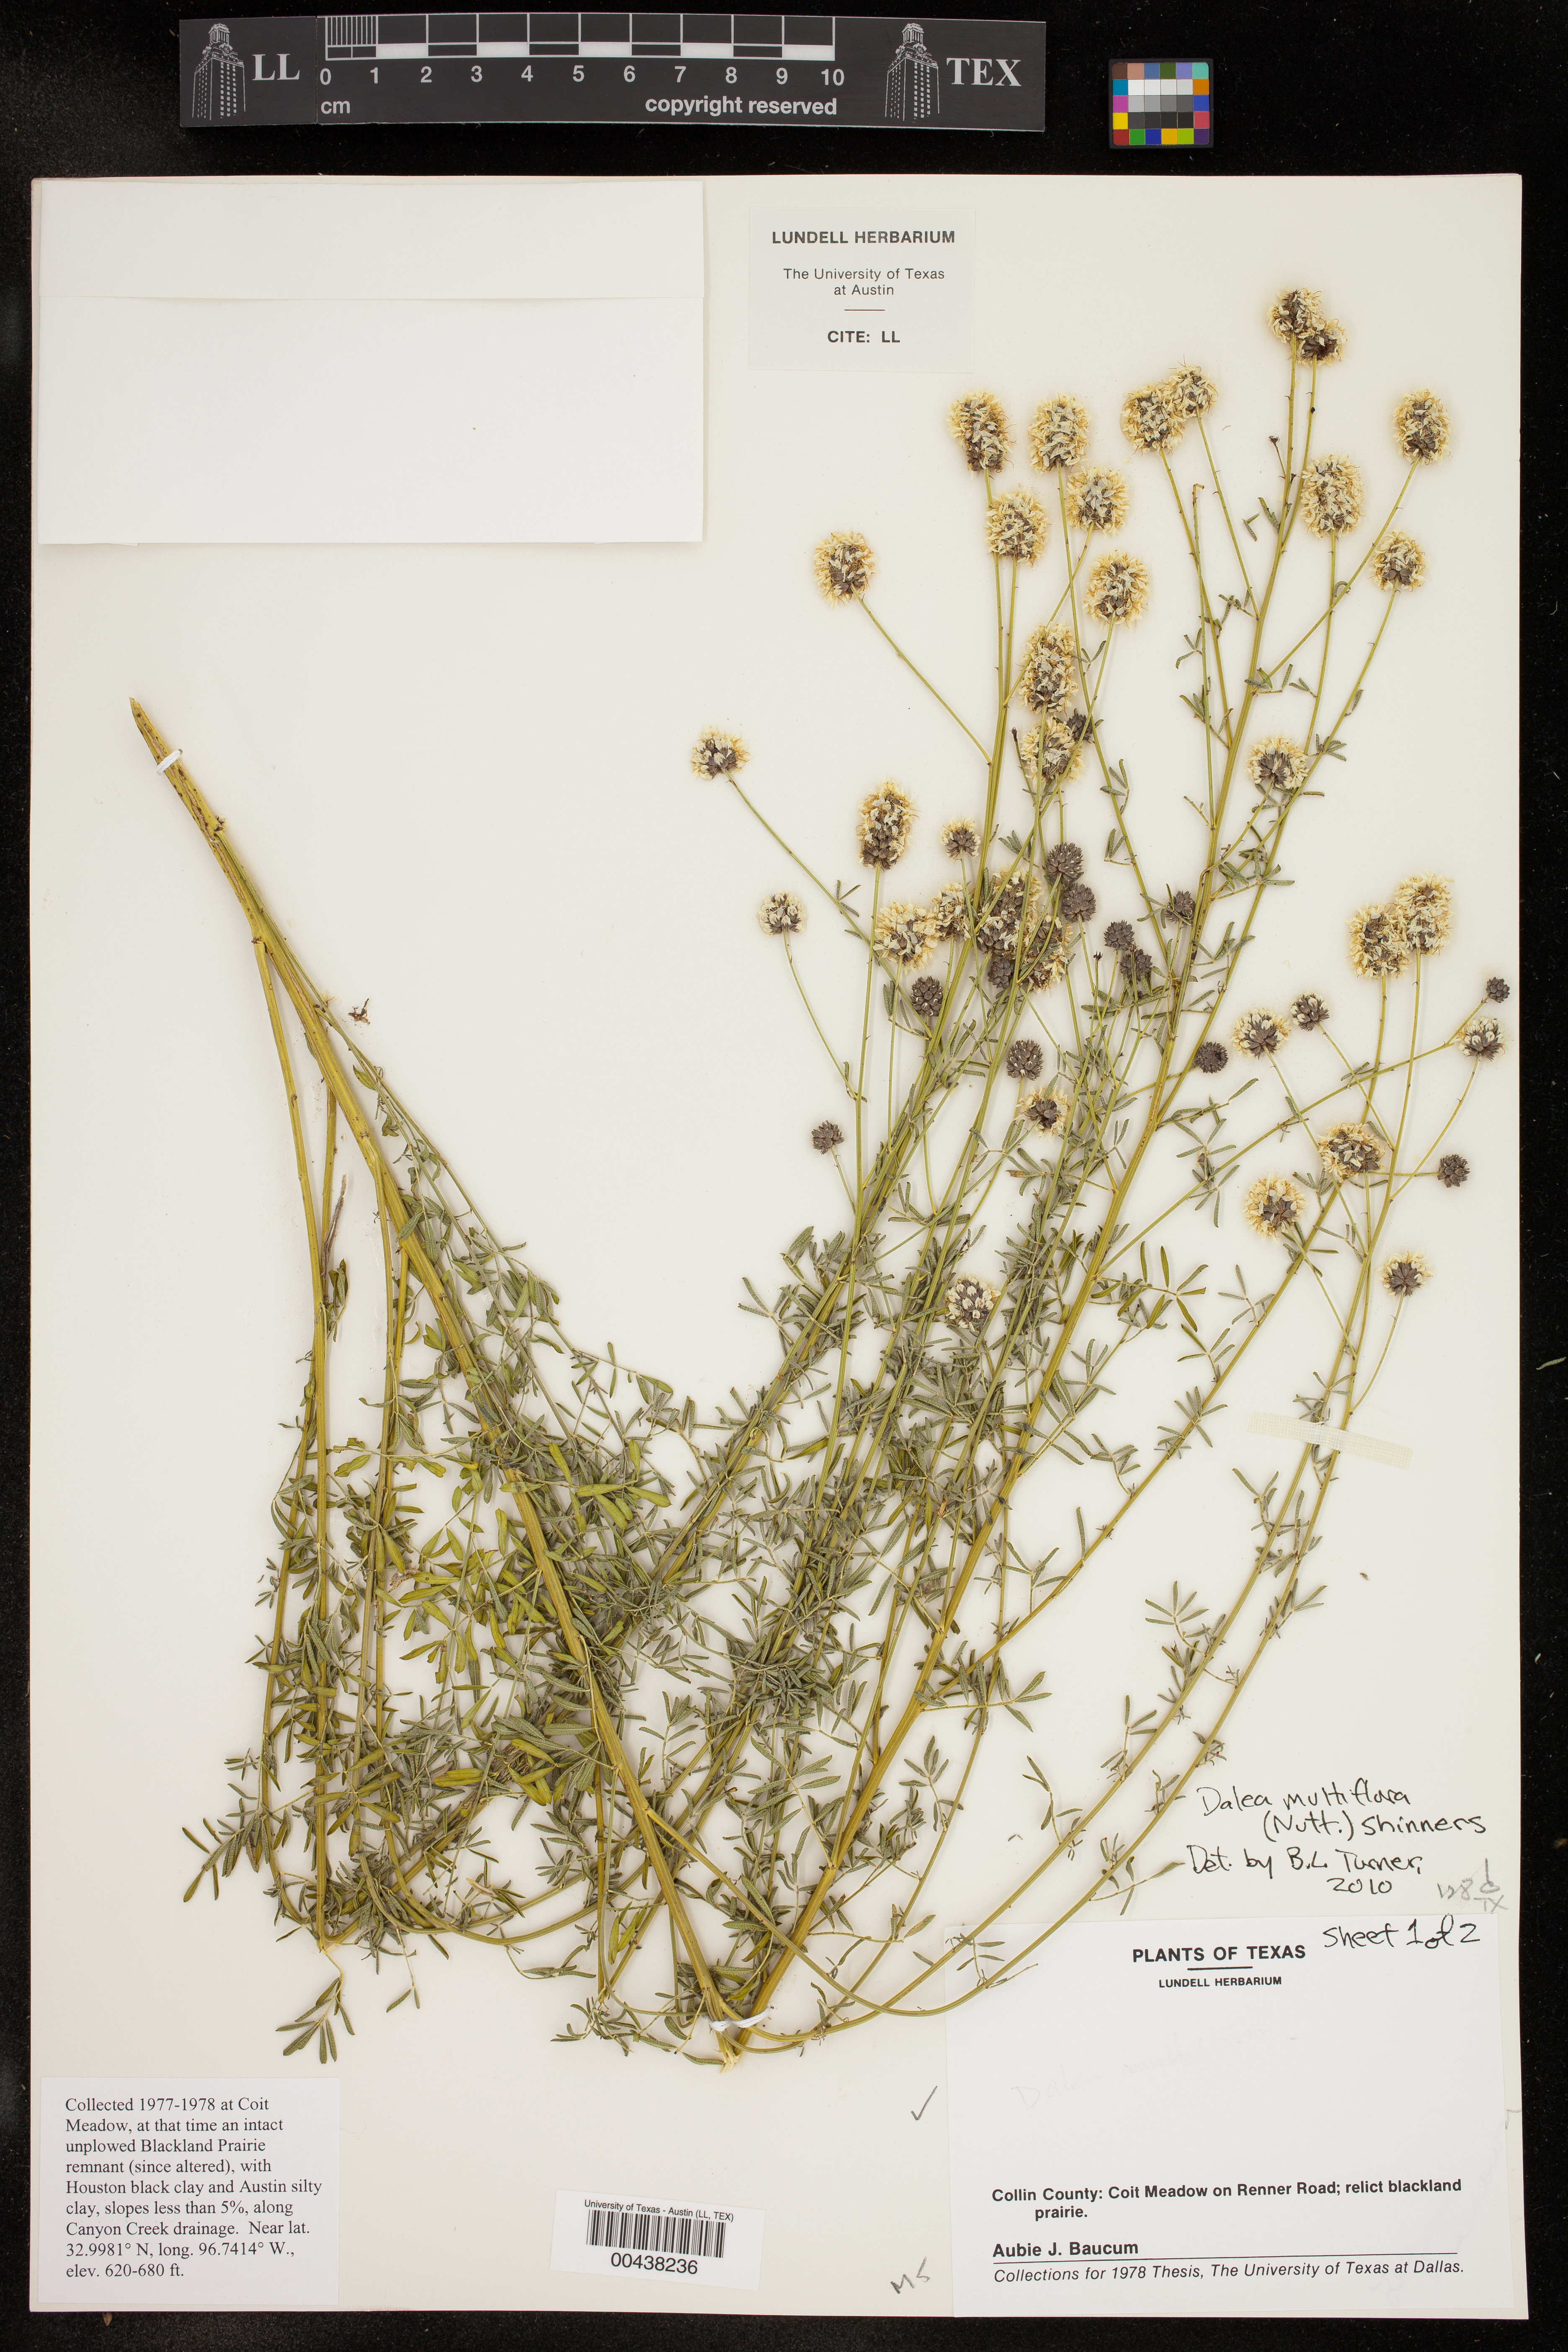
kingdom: Plantae
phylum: Tracheophyta
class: Magnoliopsida
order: Fabales
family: Fabaceae
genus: Dalea
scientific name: Dalea multiflora
